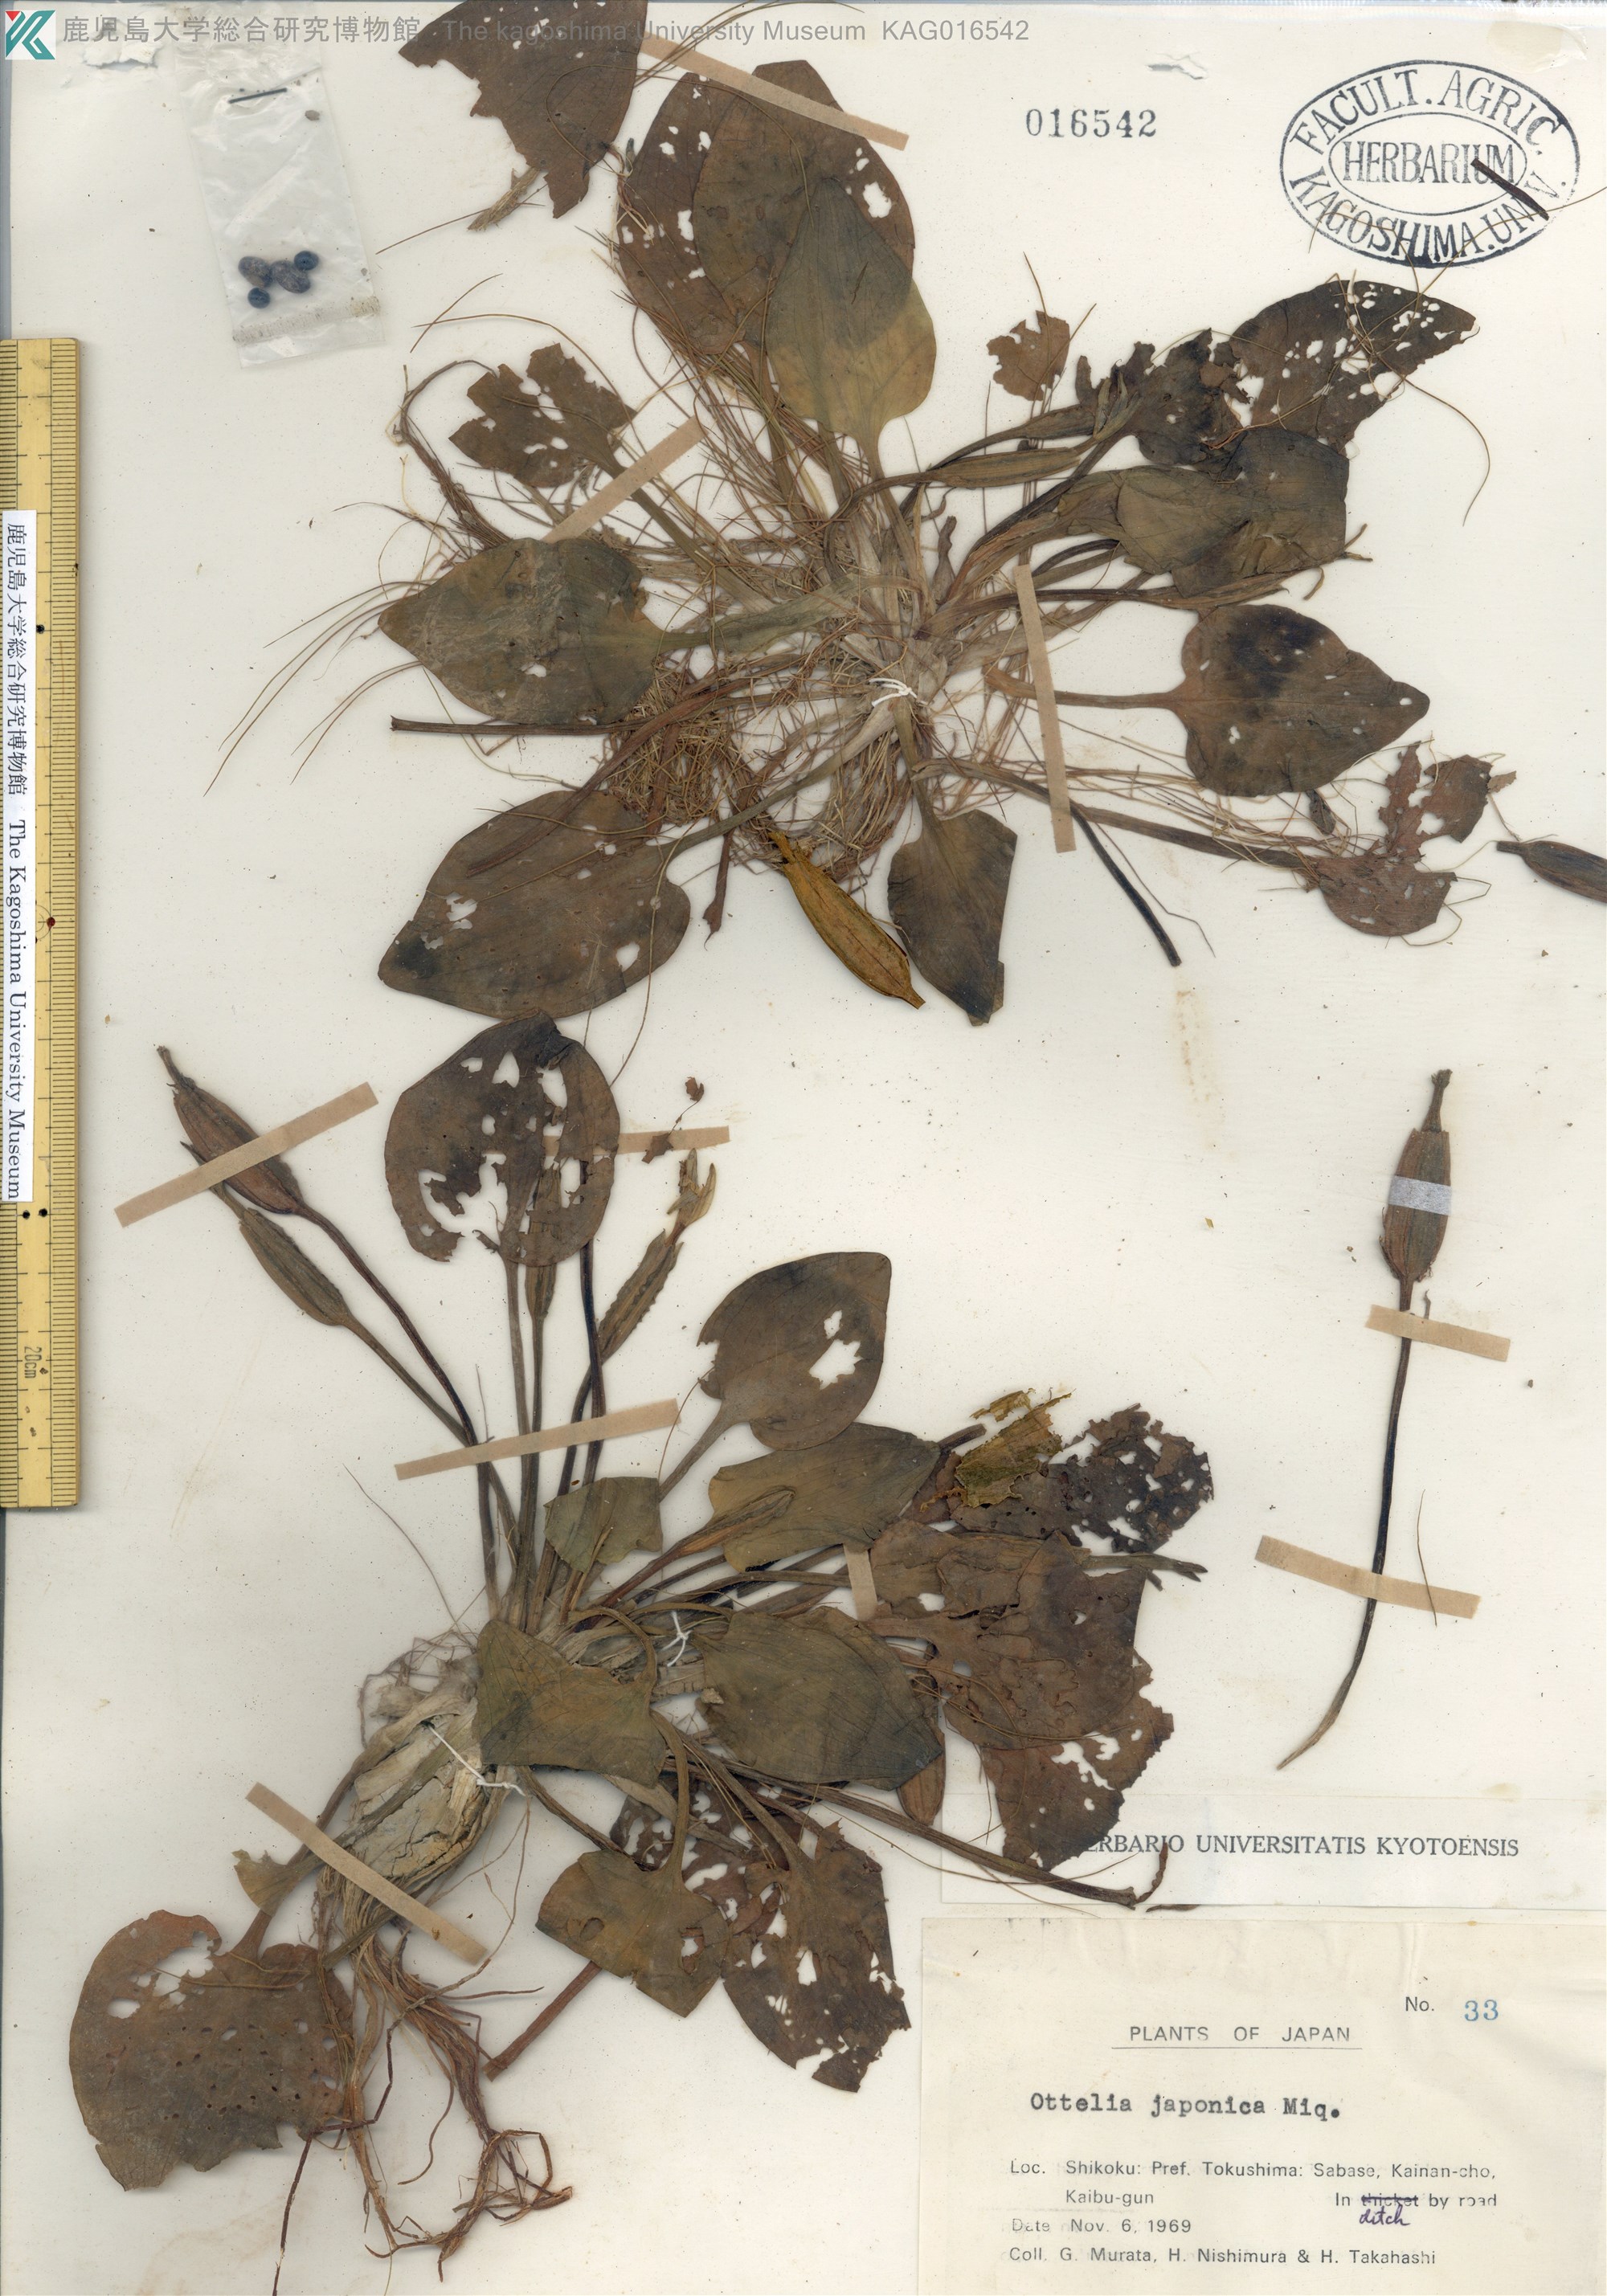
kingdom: Plantae
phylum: Tracheophyta
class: Liliopsida
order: Alismatales
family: Hydrocharitaceae
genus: Ottelia
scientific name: Ottelia alismoides
